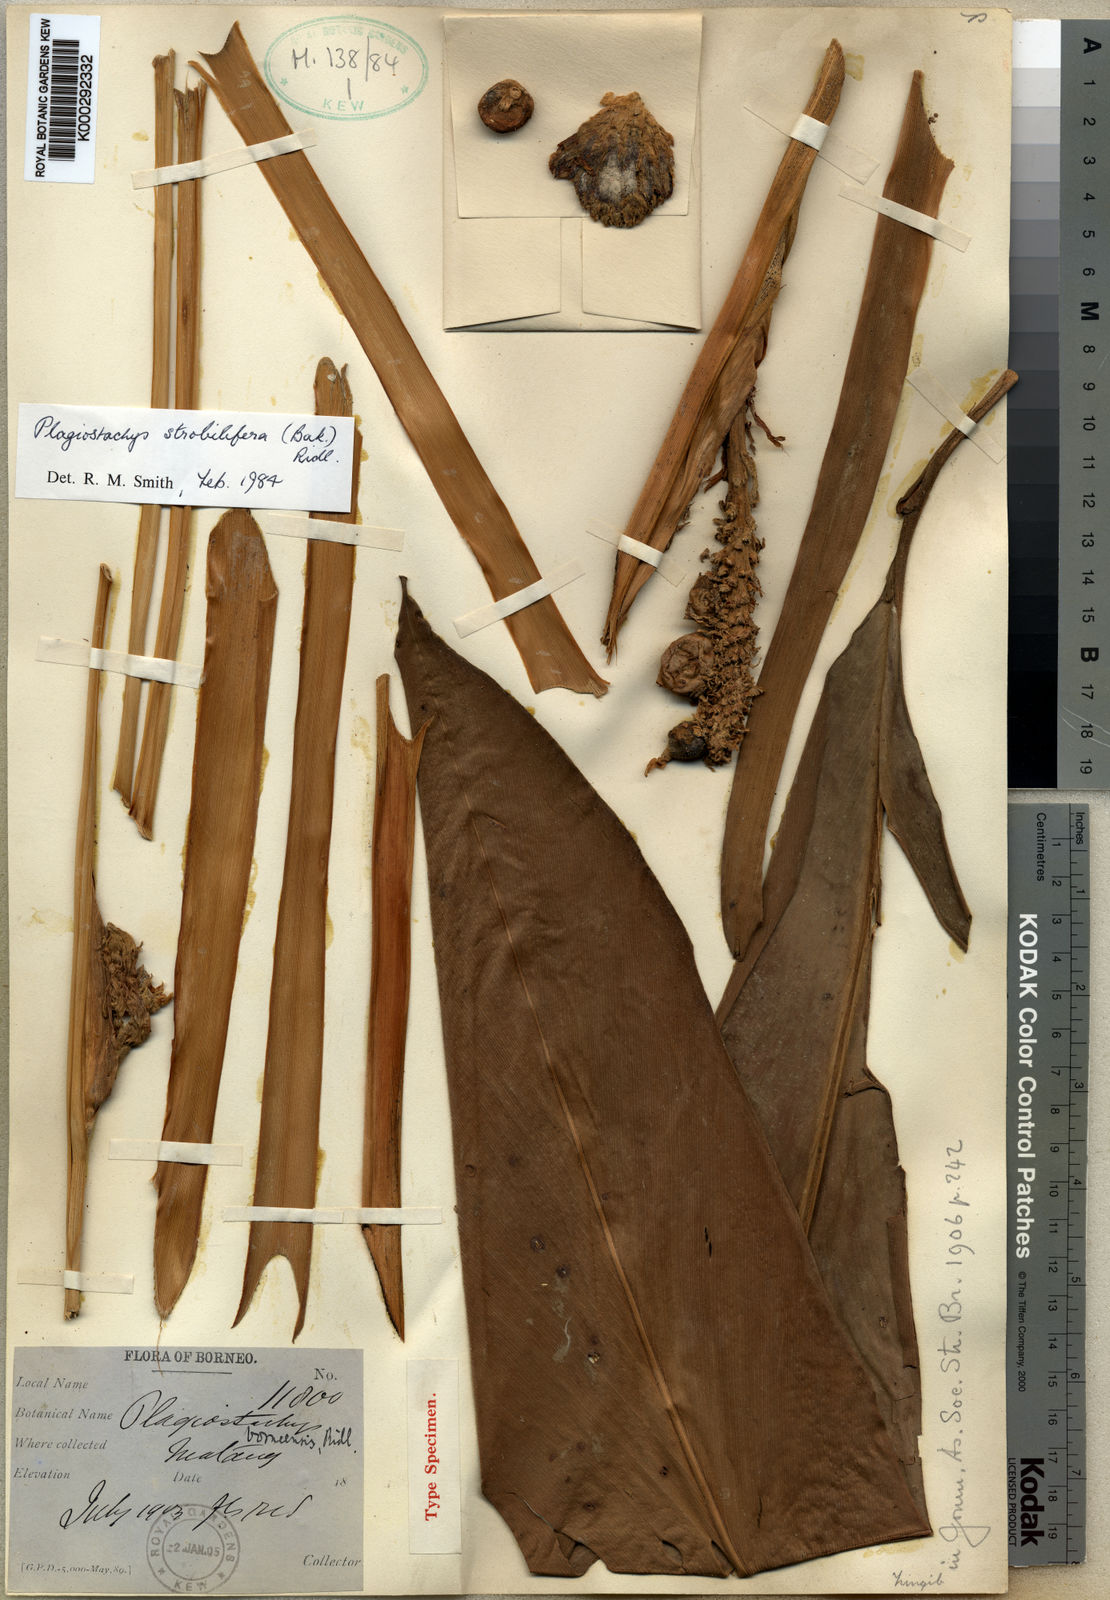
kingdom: Plantae
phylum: Tracheophyta
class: Liliopsida
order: Zingiberales
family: Zingiberaceae
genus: Plagiostachys
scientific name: Plagiostachys strobilifera
